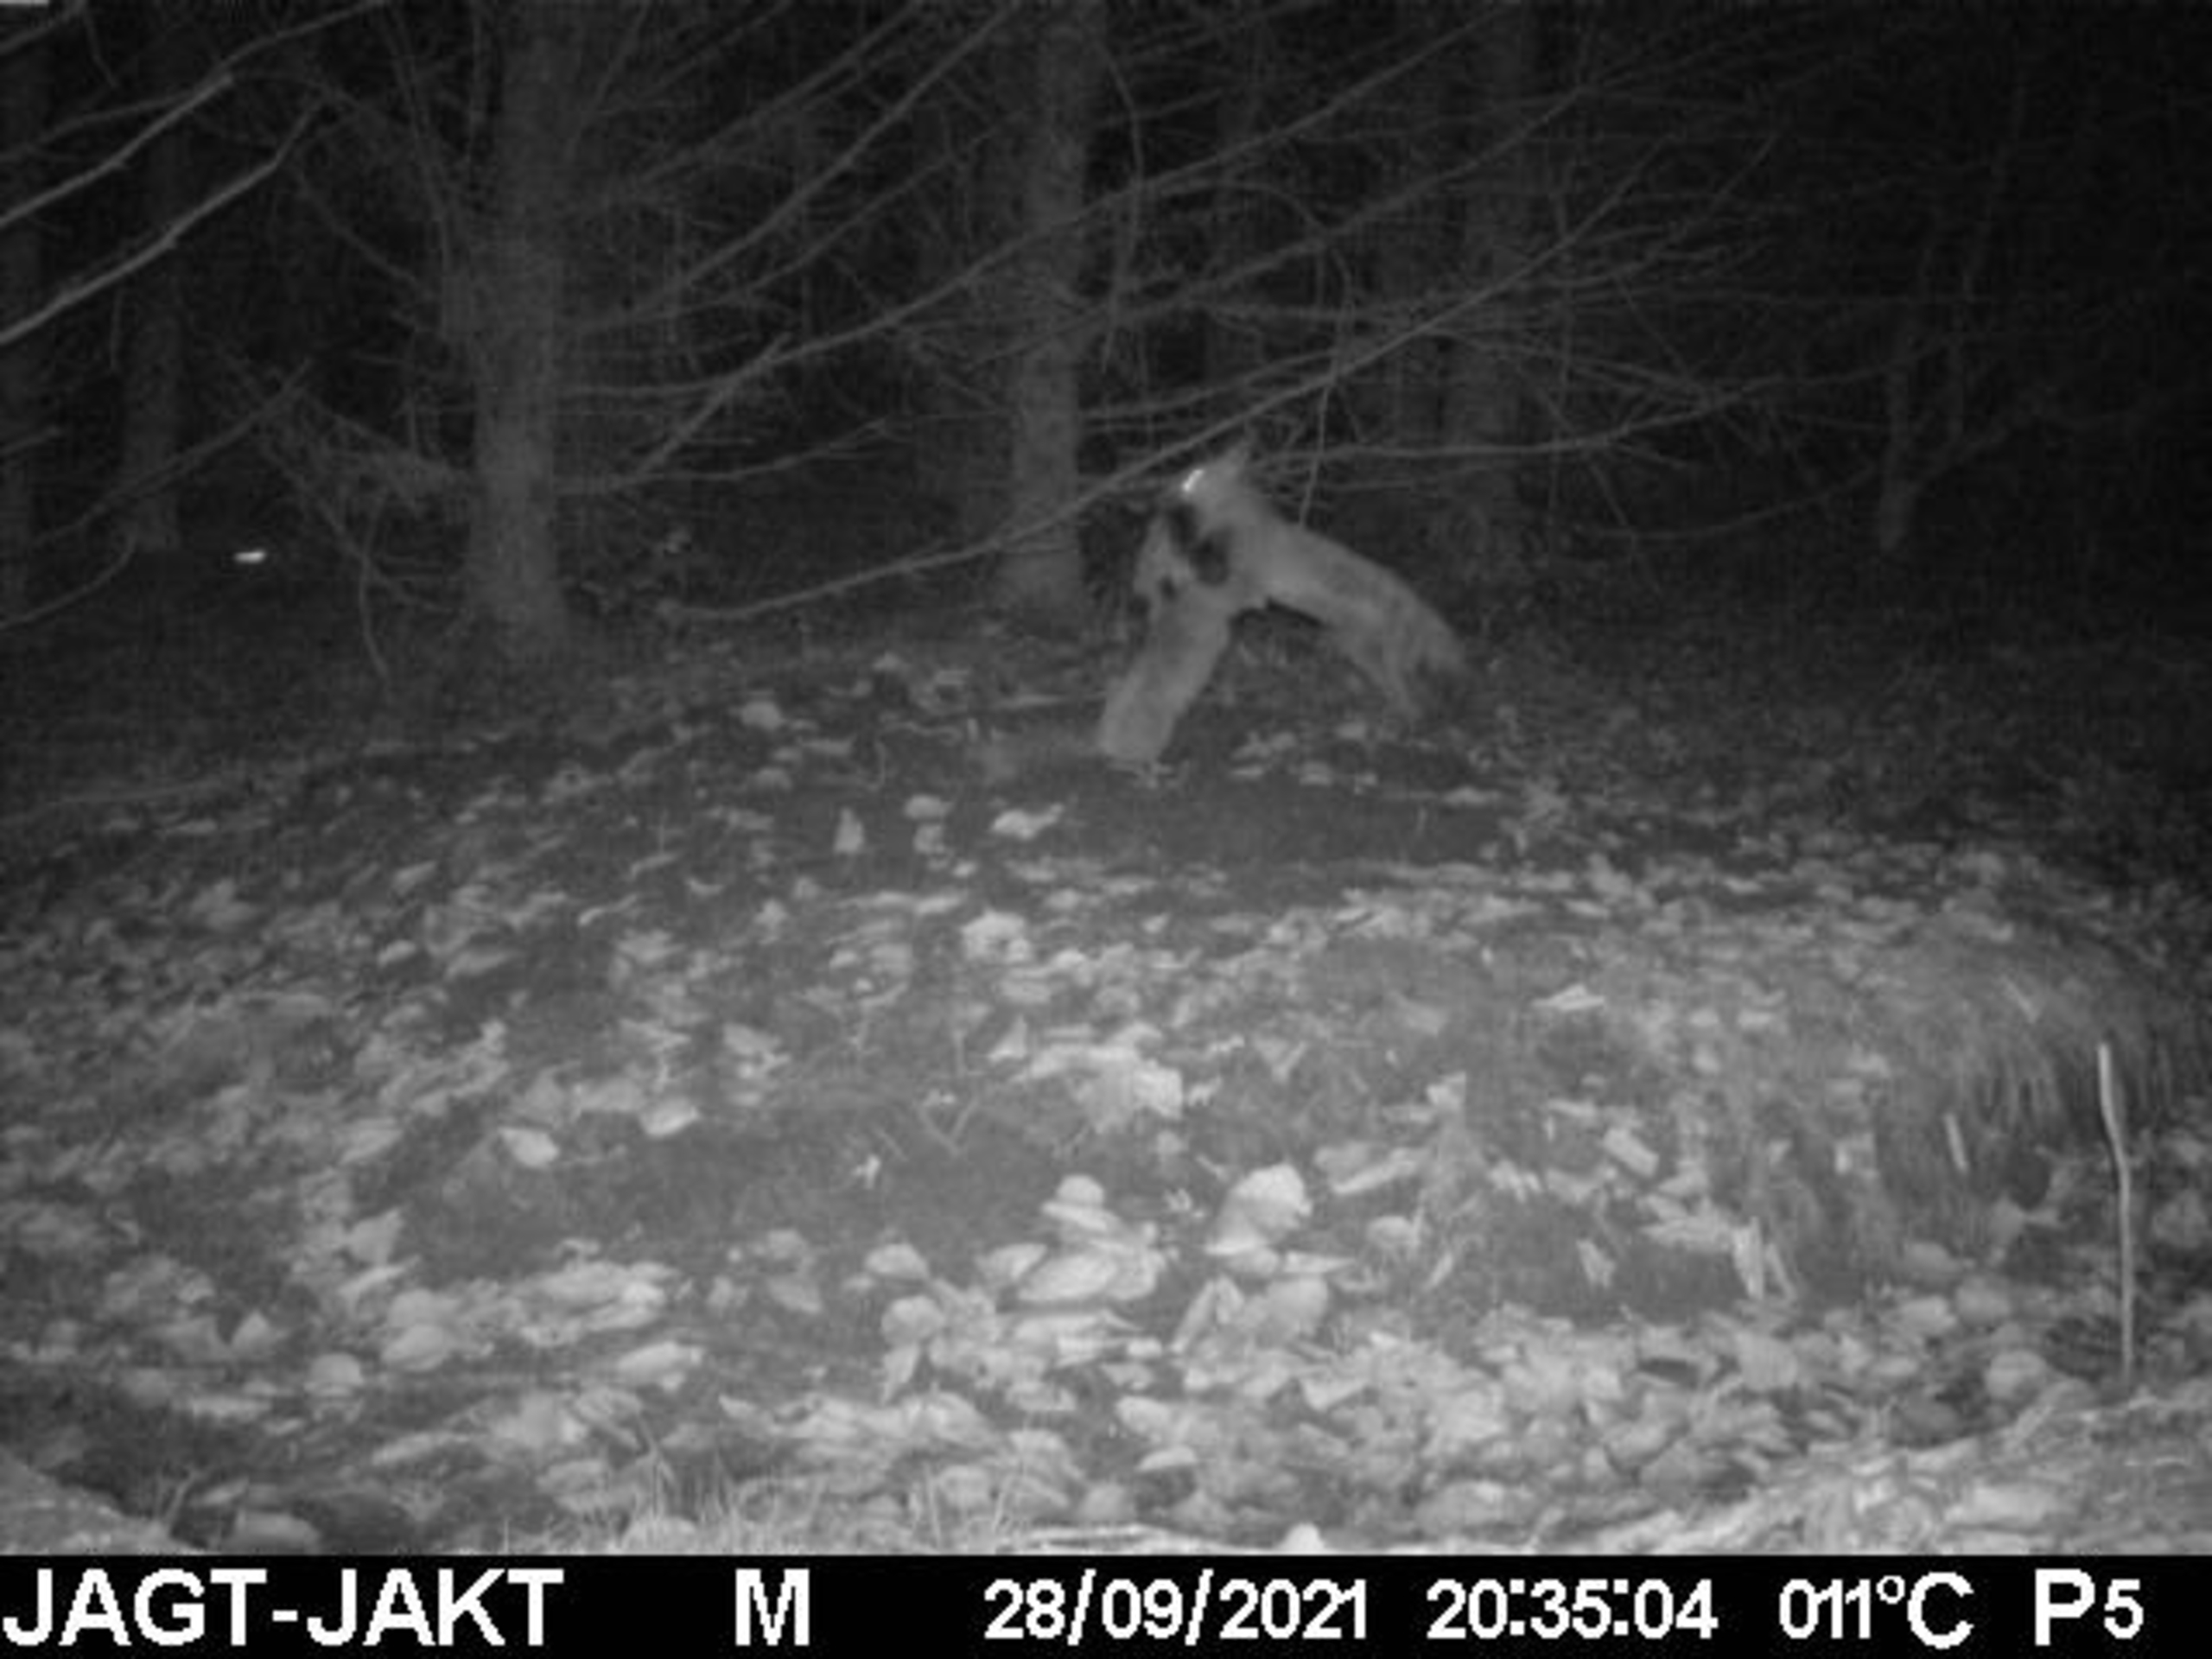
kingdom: Animalia
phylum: Chordata
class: Mammalia
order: Carnivora
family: Canidae
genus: Vulpes
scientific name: Vulpes vulpes
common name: Ræv
